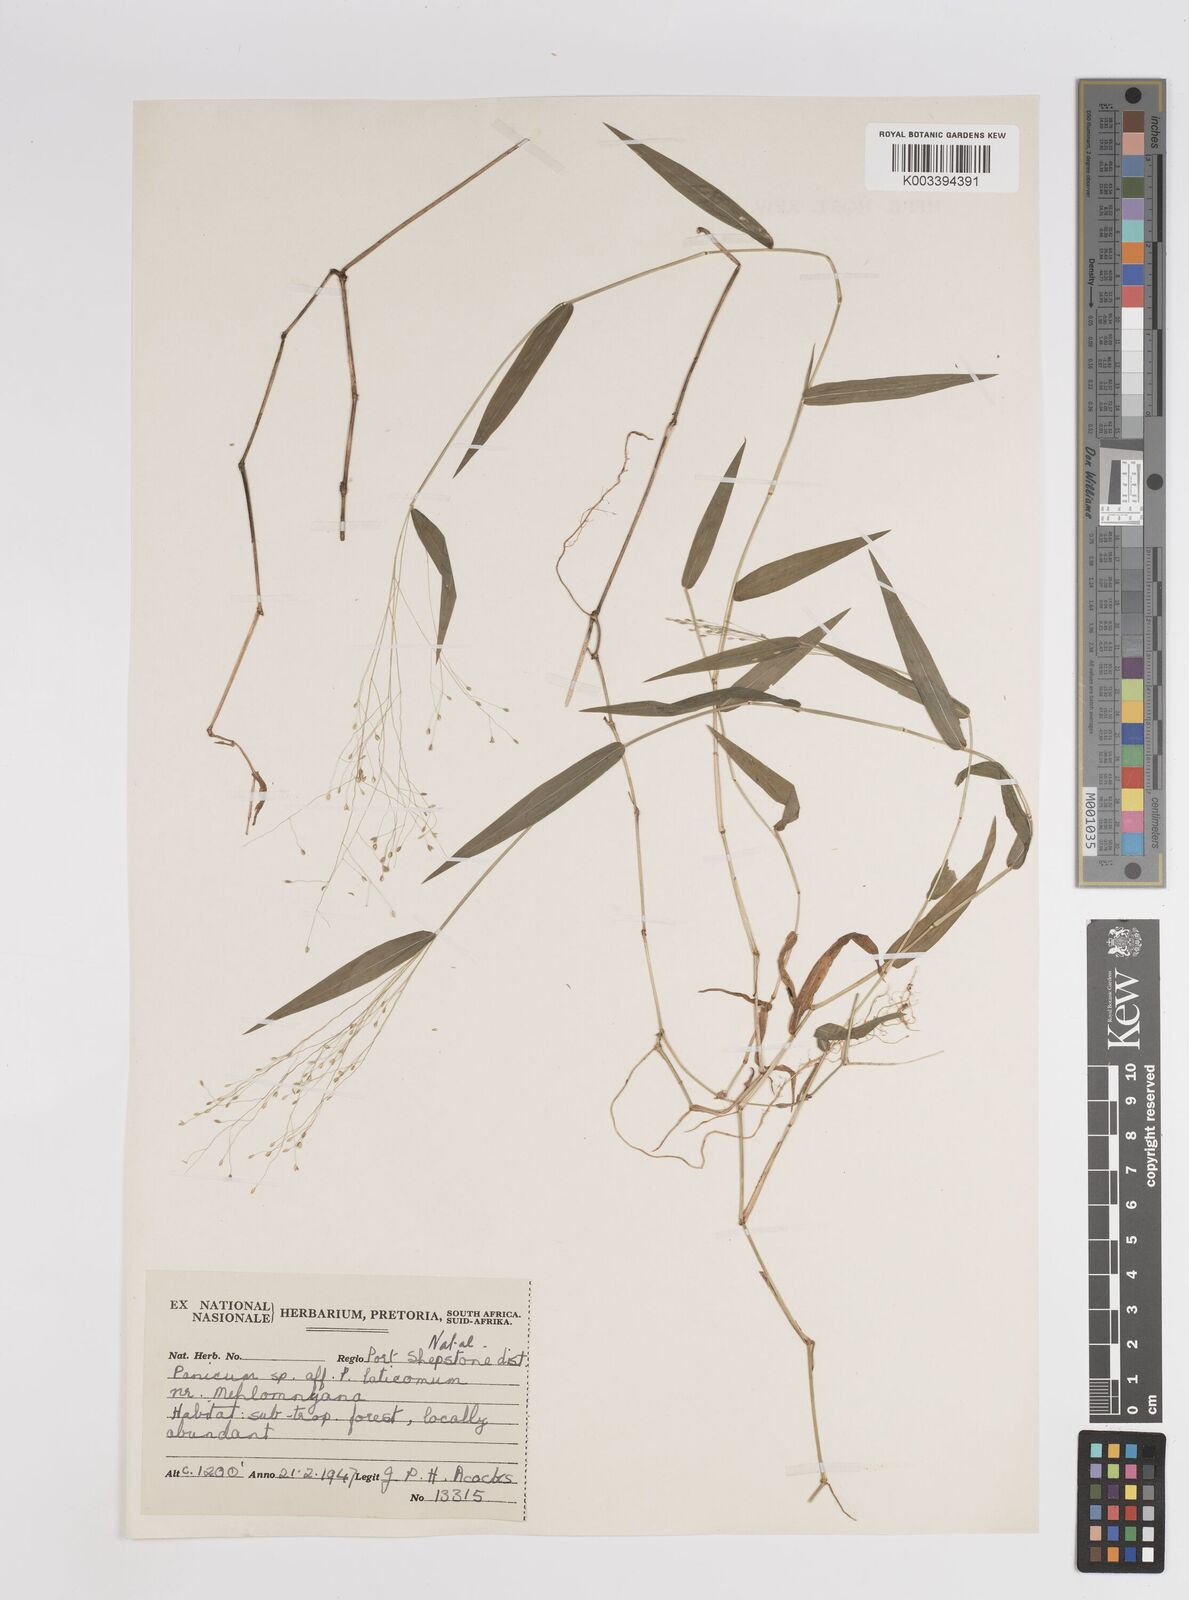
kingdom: Plantae
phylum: Tracheophyta
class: Liliopsida
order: Poales
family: Poaceae
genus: Panicum
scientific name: Panicum laticomum
